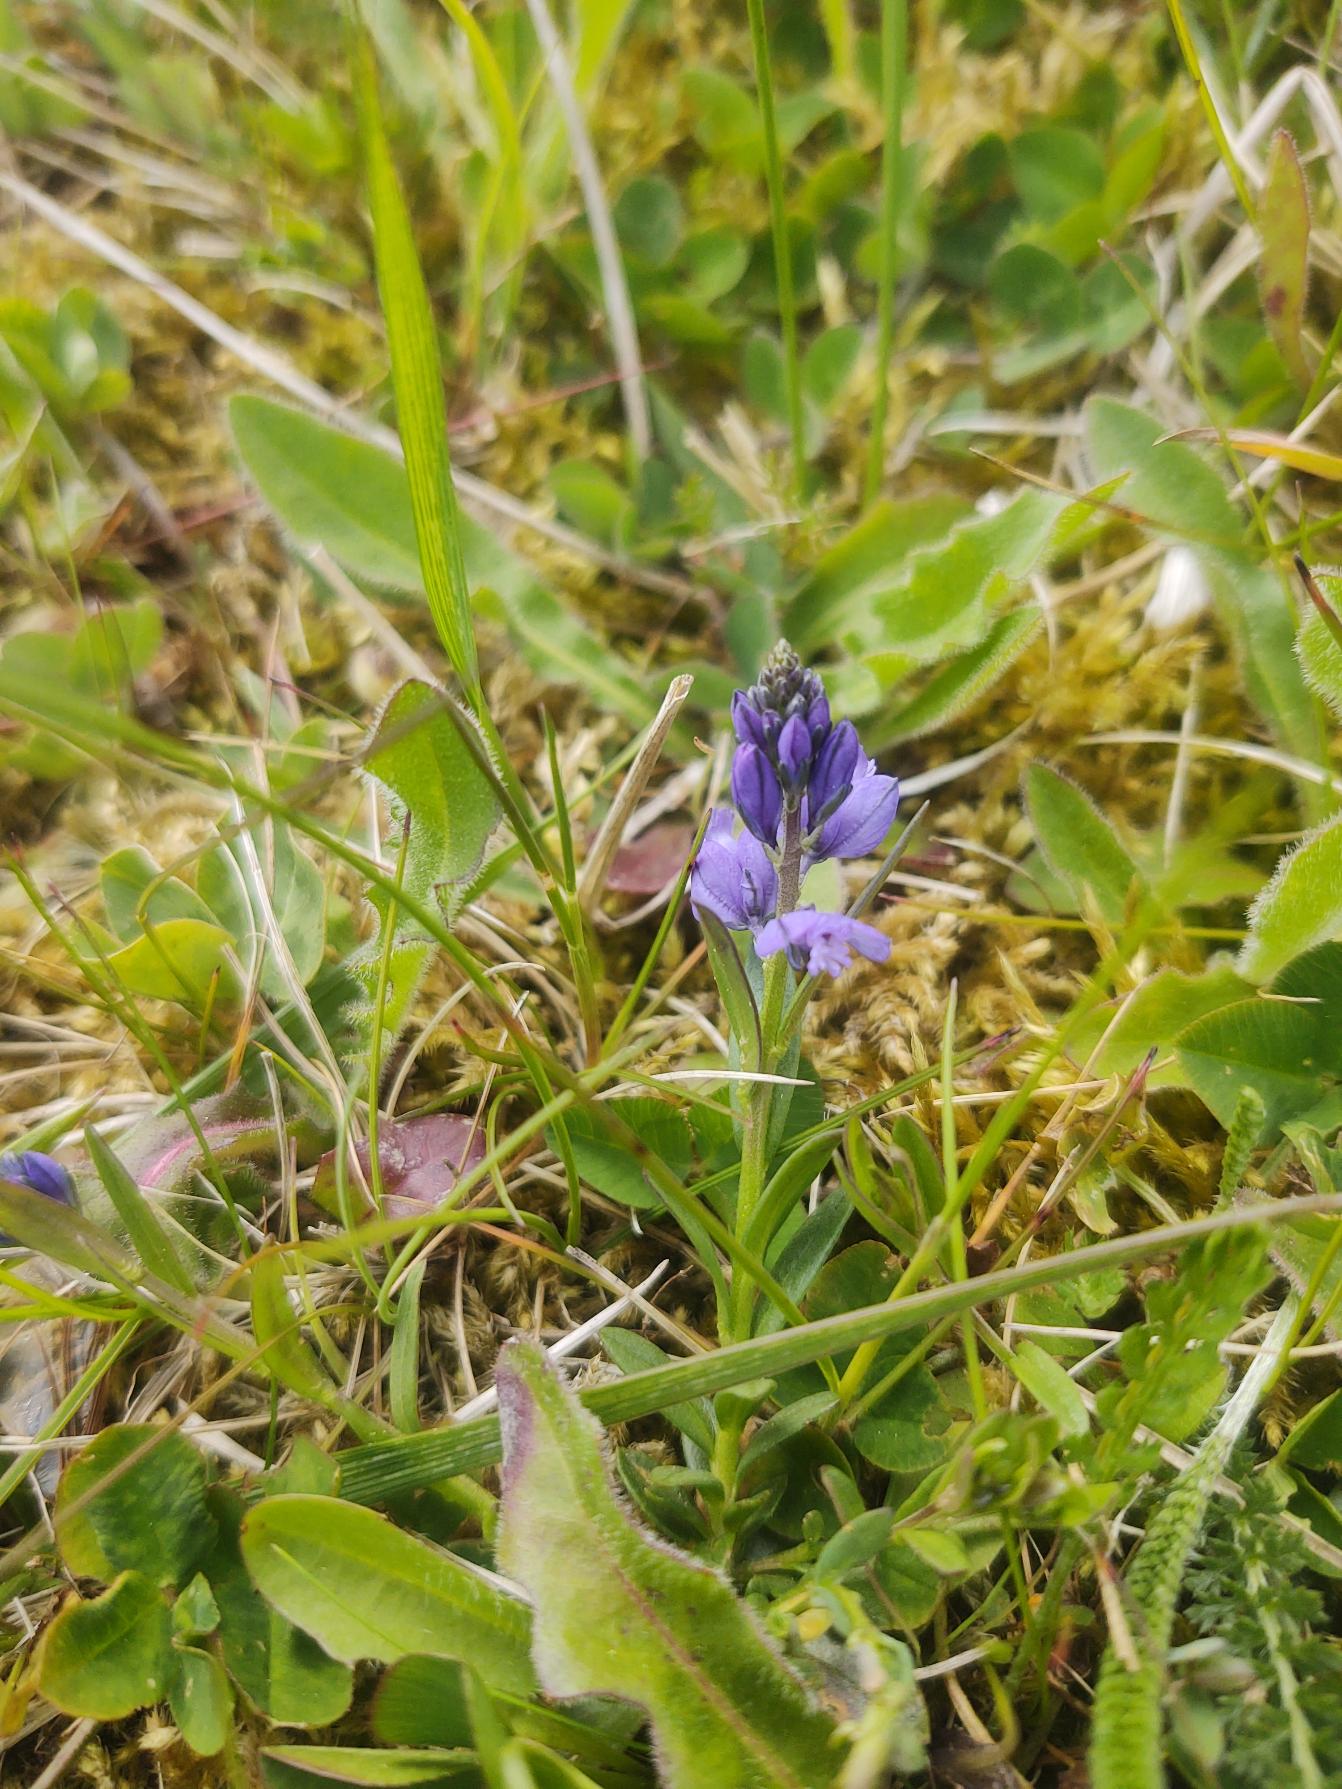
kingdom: Plantae
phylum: Tracheophyta
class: Magnoliopsida
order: Fabales
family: Polygalaceae
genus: Polygala
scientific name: Polygala vulgaris
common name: Almindelig mælkeurt
